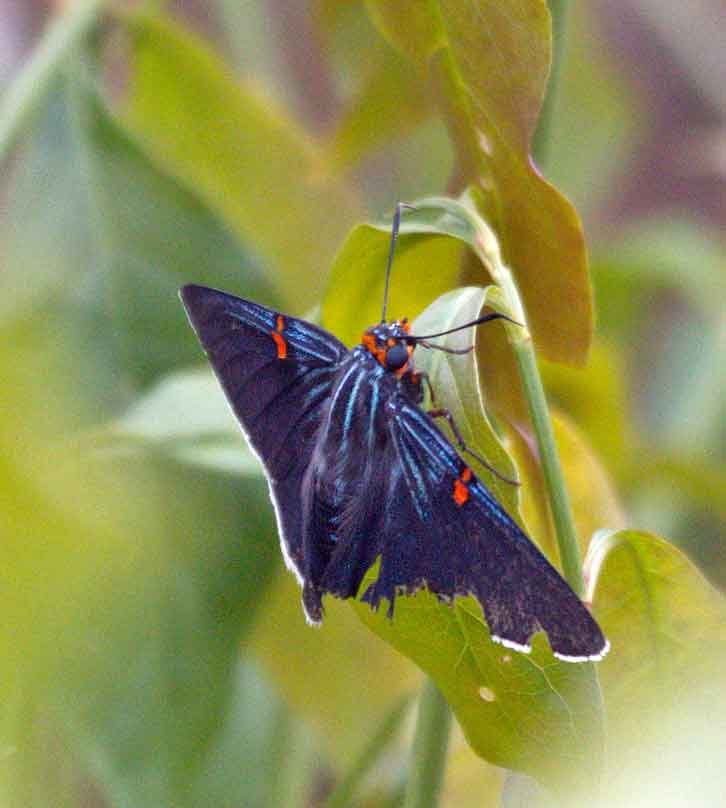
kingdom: Animalia
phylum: Arthropoda
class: Insecta
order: Lepidoptera
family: Hesperiidae
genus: Phocides
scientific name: Phocides polybius
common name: Guava Skipper
